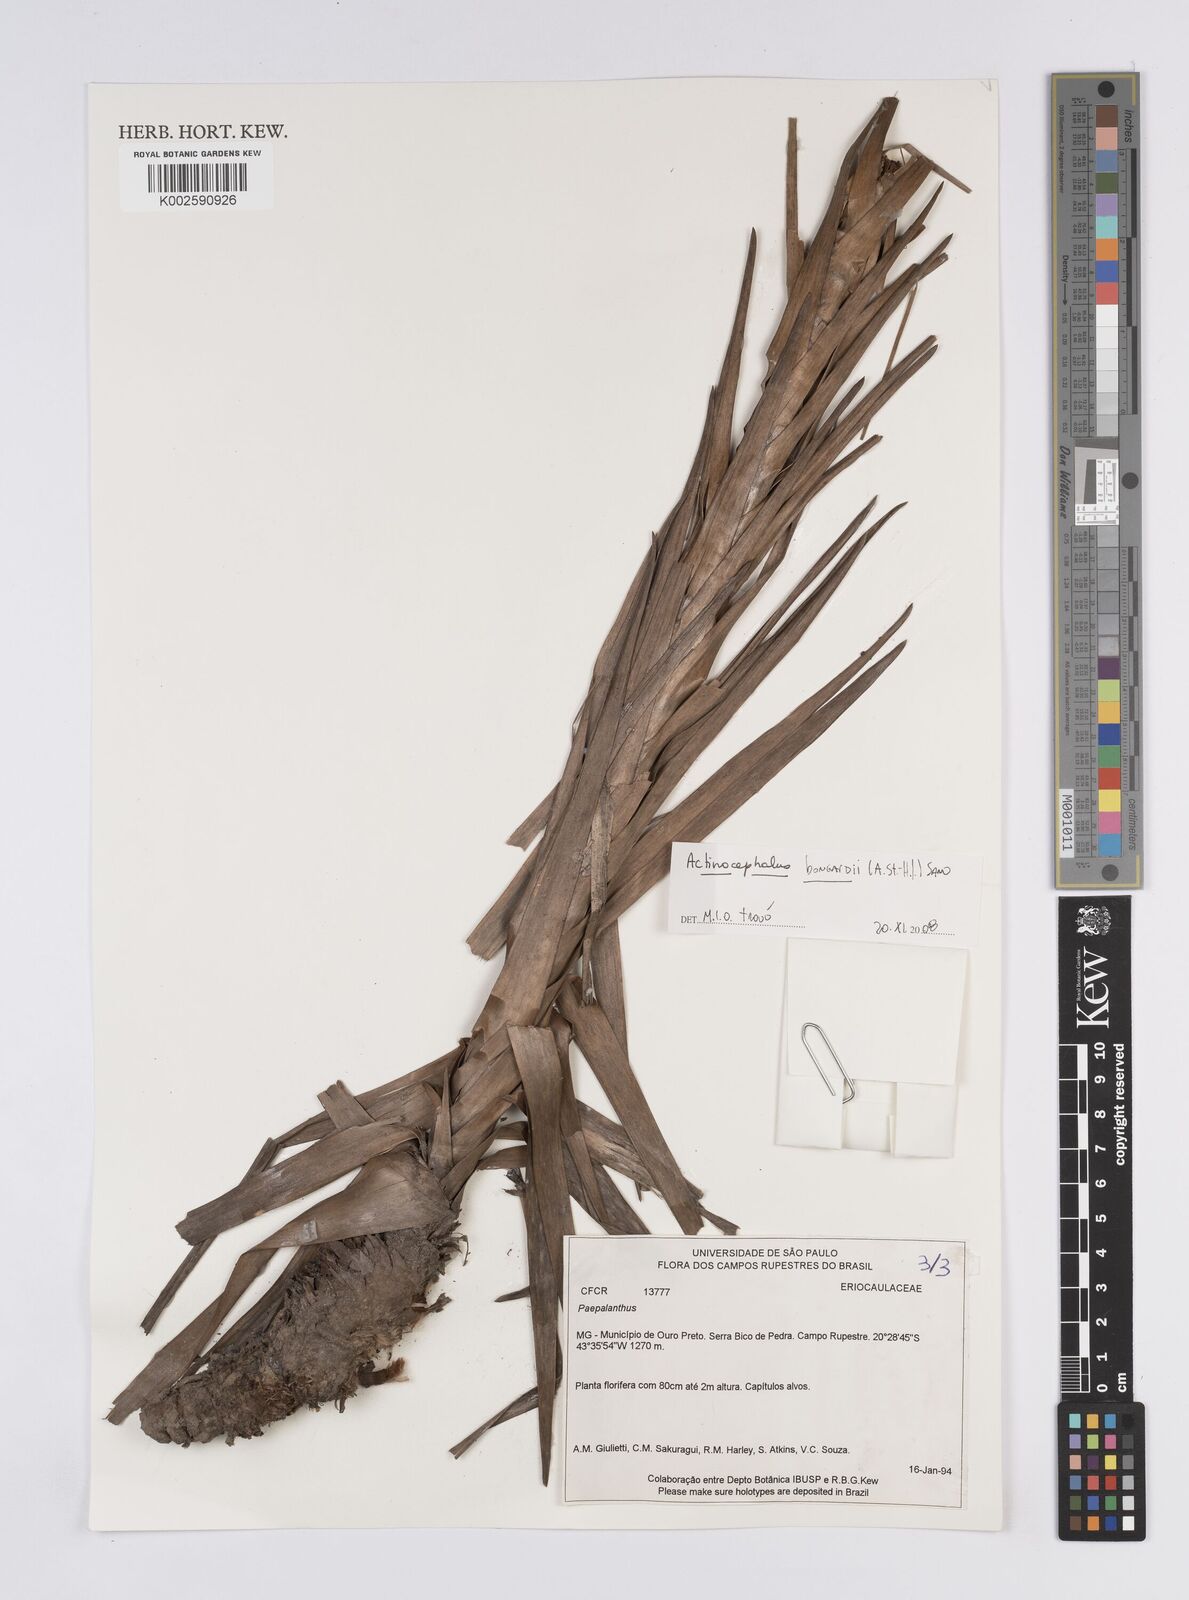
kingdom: Plantae
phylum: Tracheophyta
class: Liliopsida
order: Poales
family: Eriocaulaceae
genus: Paepalanthus
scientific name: Paepalanthus hilairei
